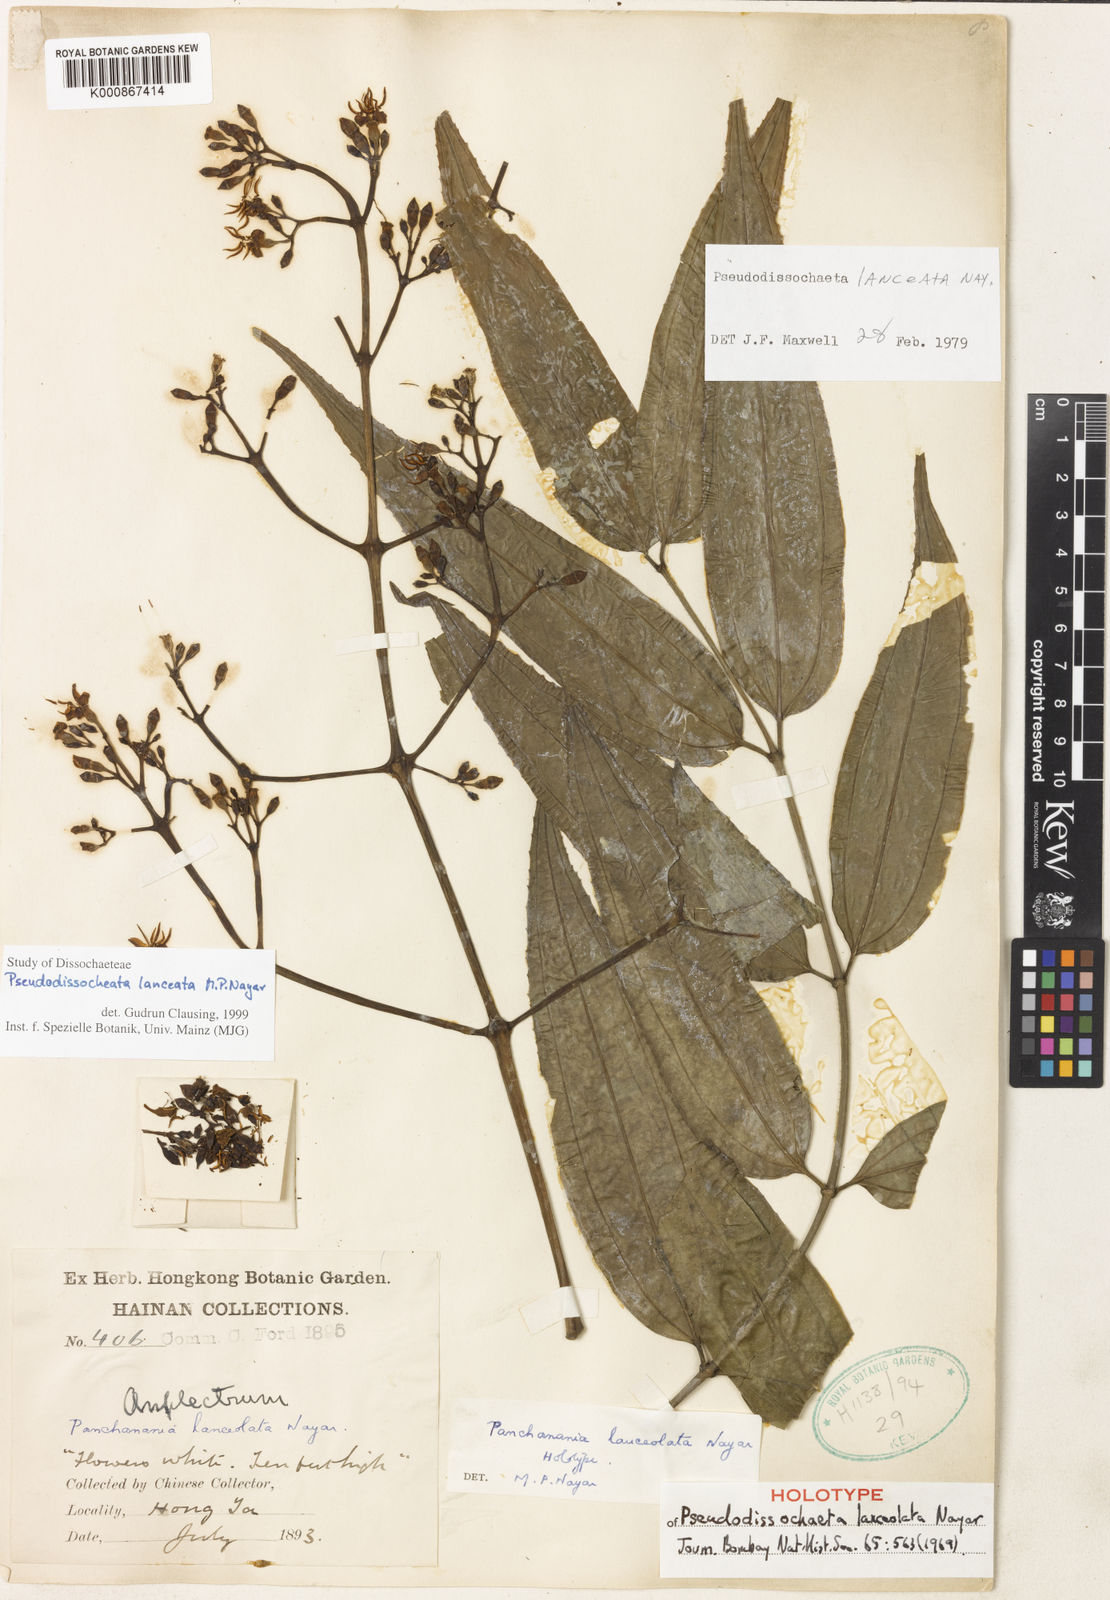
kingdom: Plantae
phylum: Tracheophyta
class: Magnoliopsida
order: Myrtales
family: Melastomataceae
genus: Pseudodissochaeta
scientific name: Pseudodissochaeta lanceata
